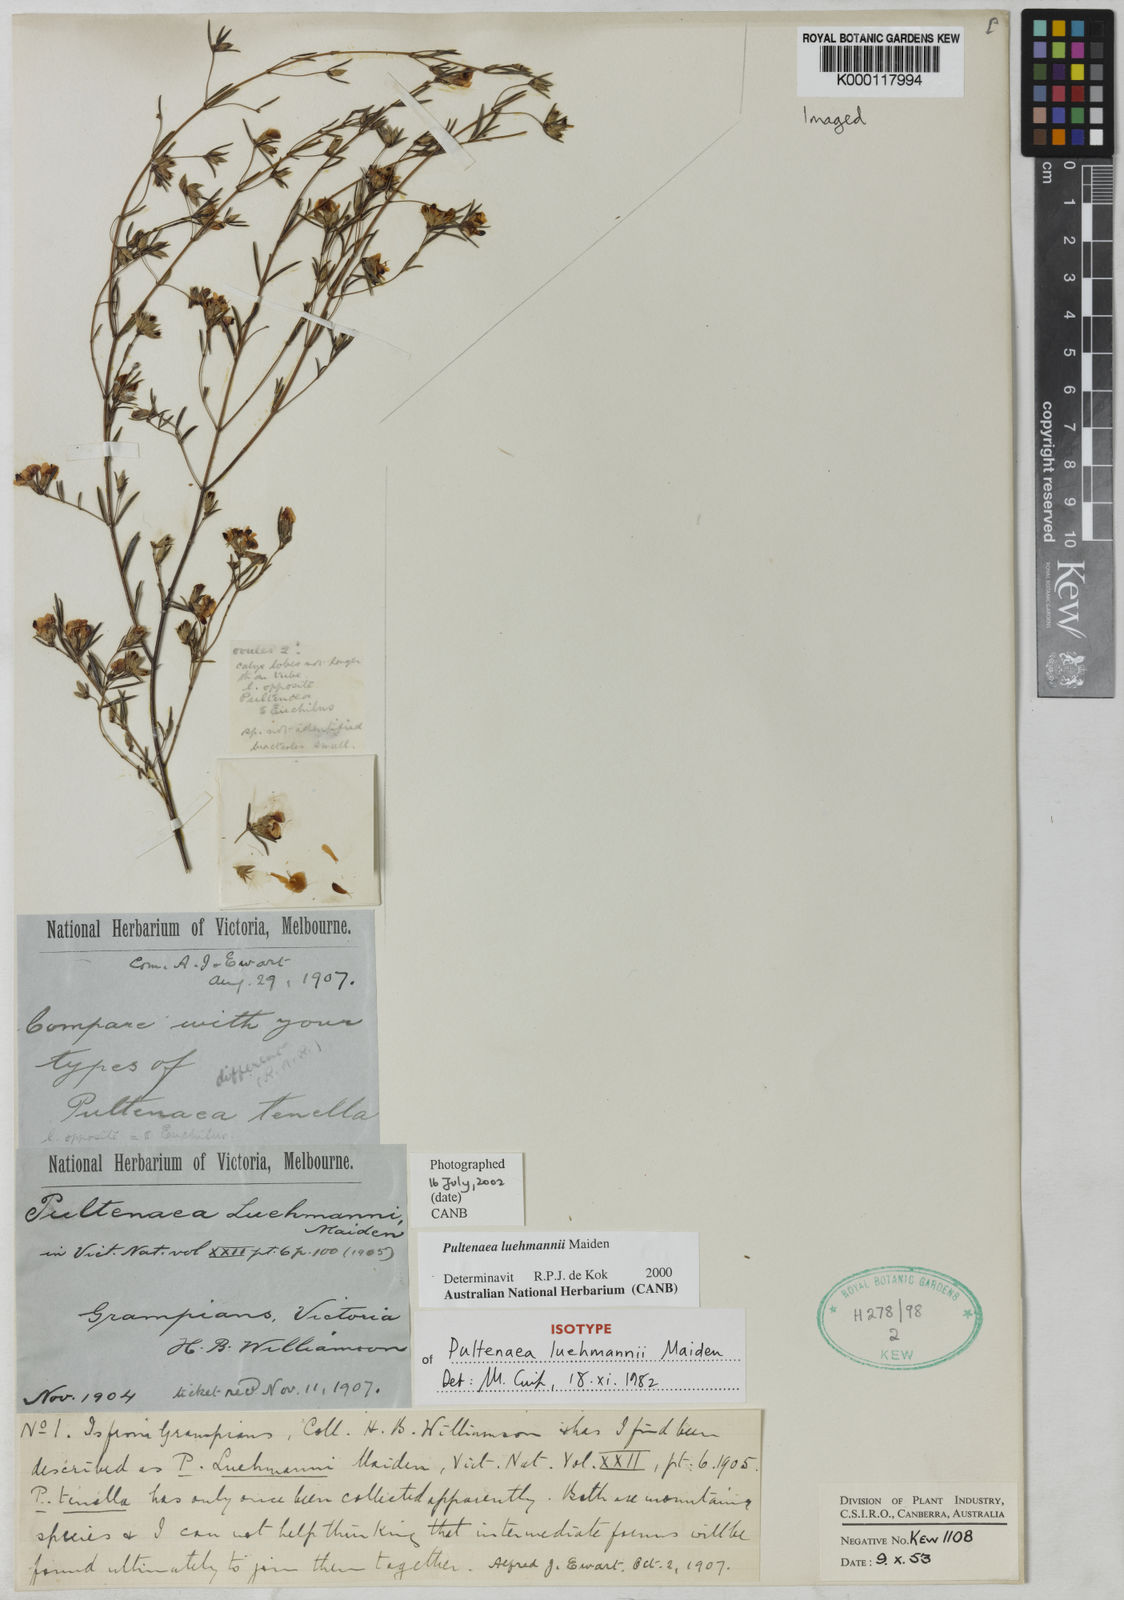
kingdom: Plantae
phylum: Tracheophyta
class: Magnoliopsida
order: Fabales
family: Fabaceae
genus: Pultenaea
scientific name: Pultenaea luehmannii
